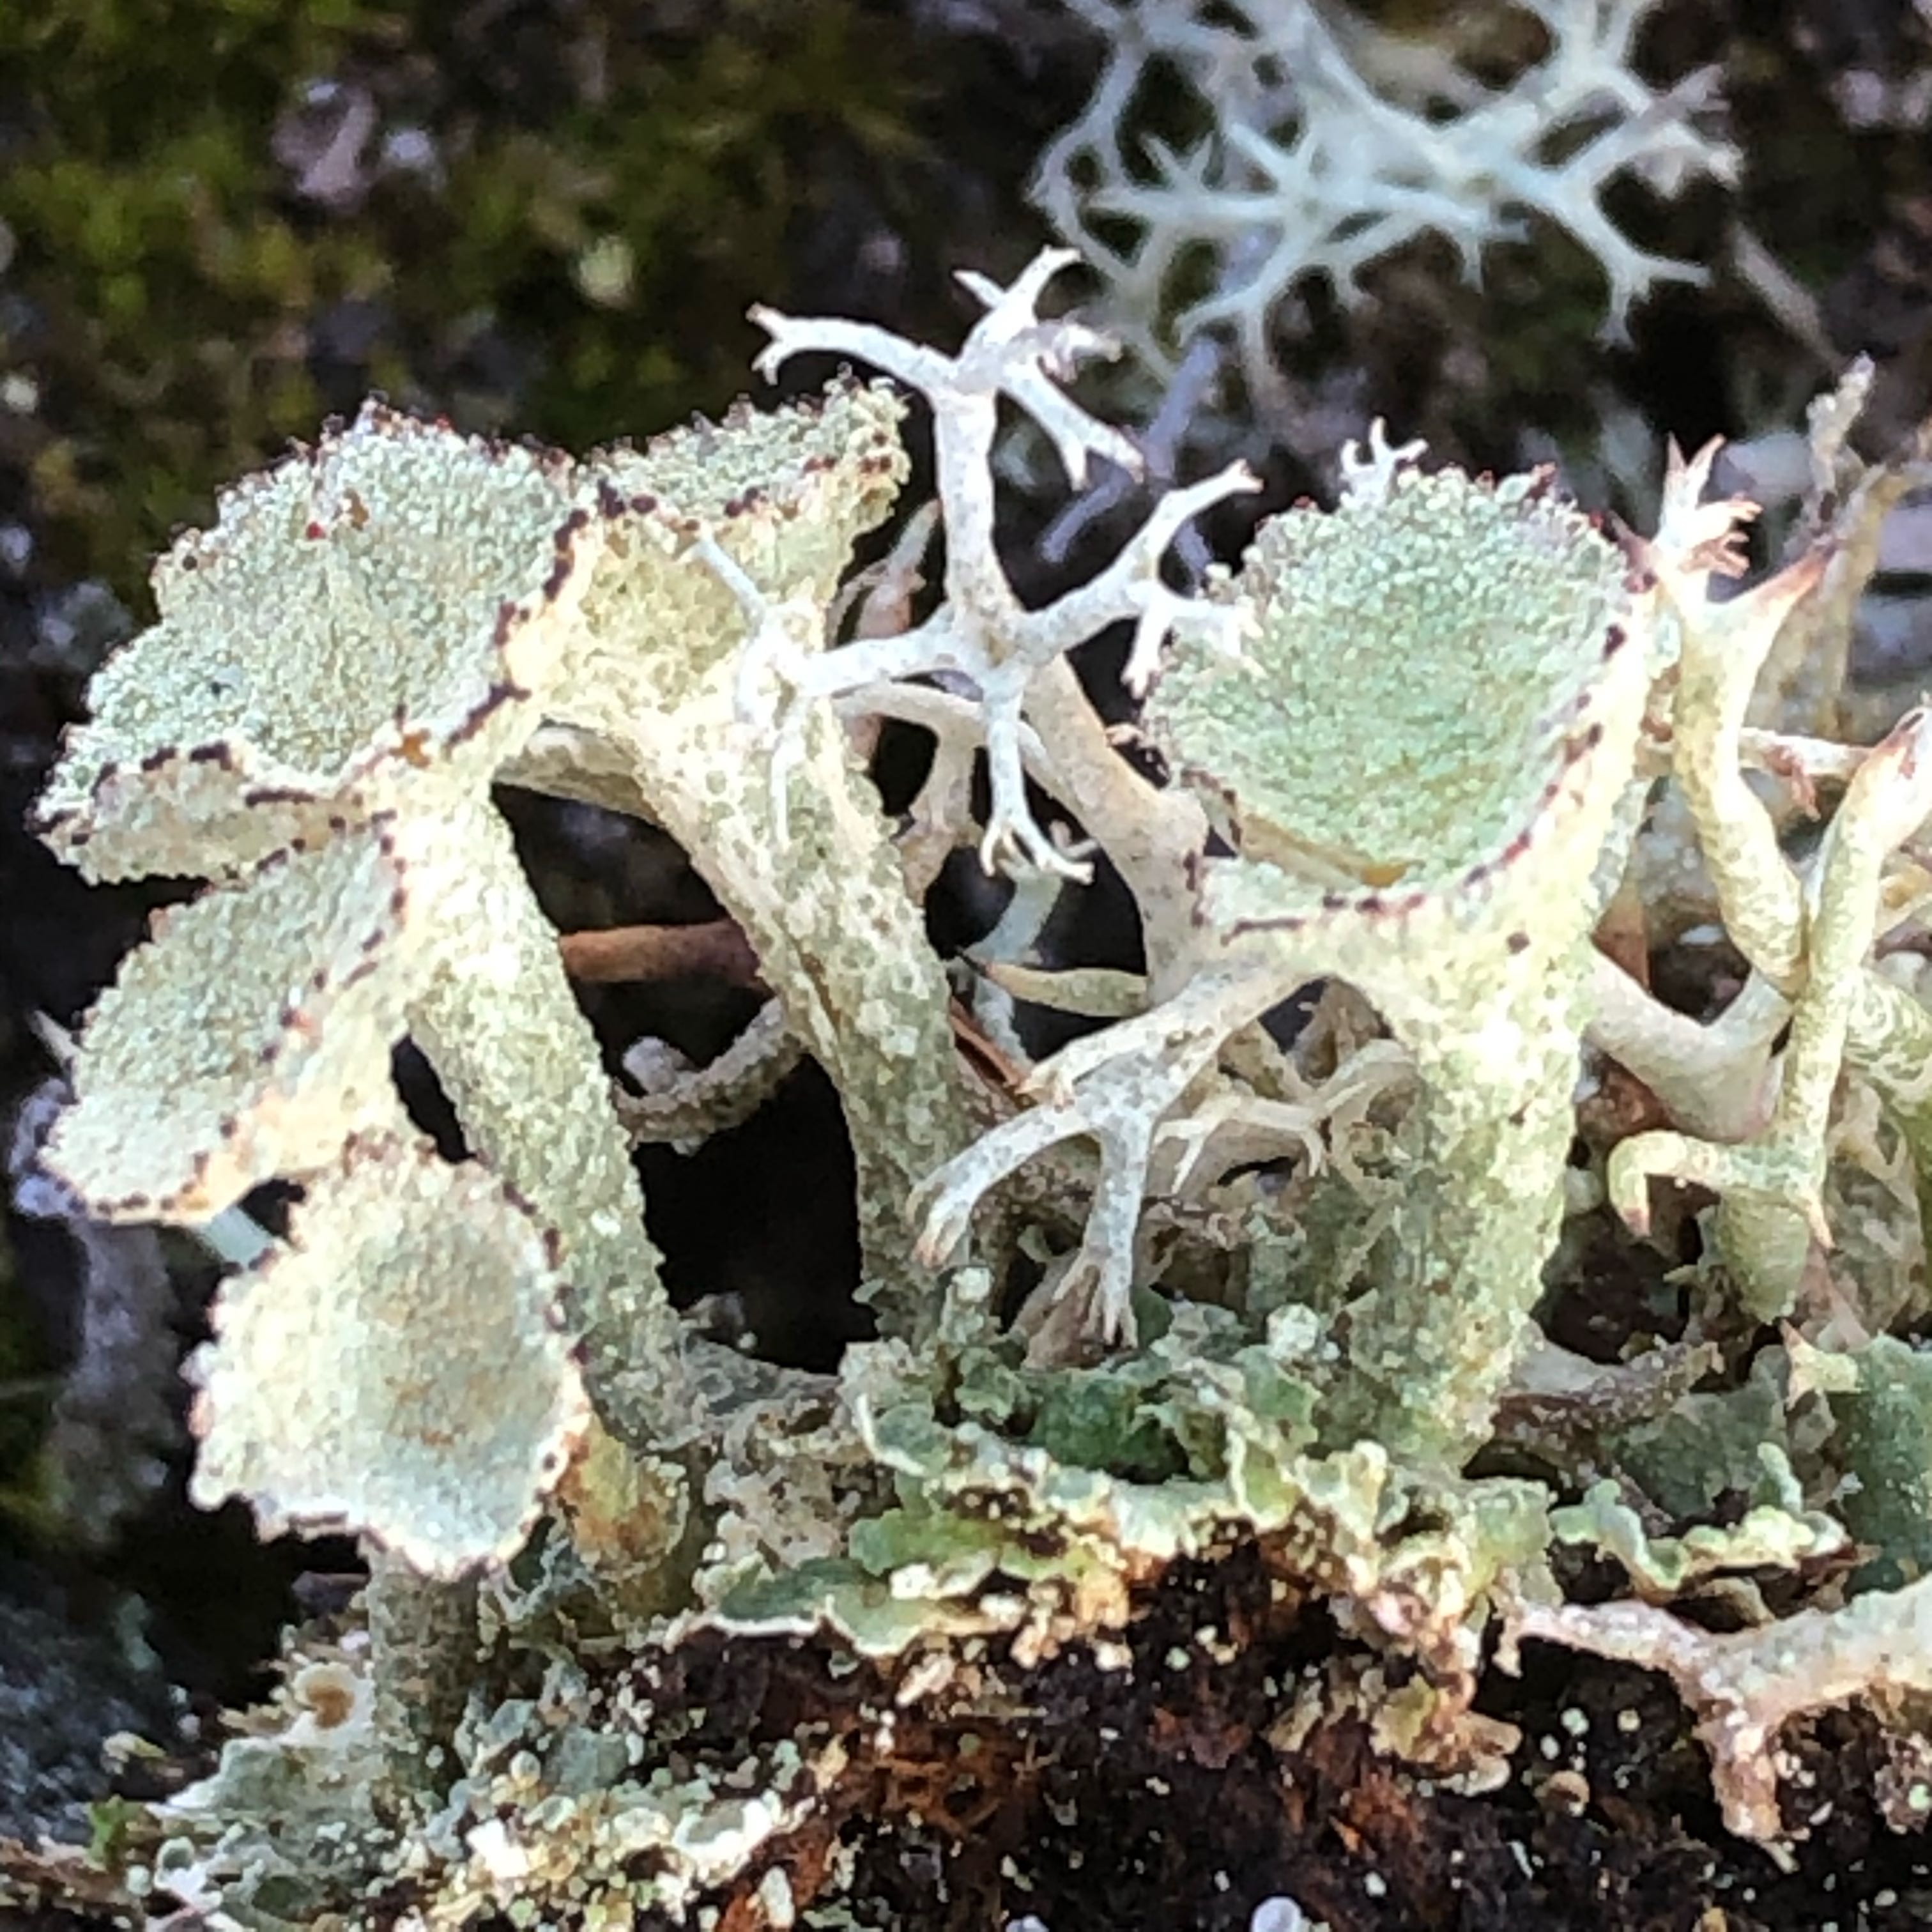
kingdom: Fungi
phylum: Ascomycota
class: Lecanoromycetes
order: Lecanorales
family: Cladoniaceae
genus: Cladonia
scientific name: Cladonia diversa
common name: rød bægerlav
